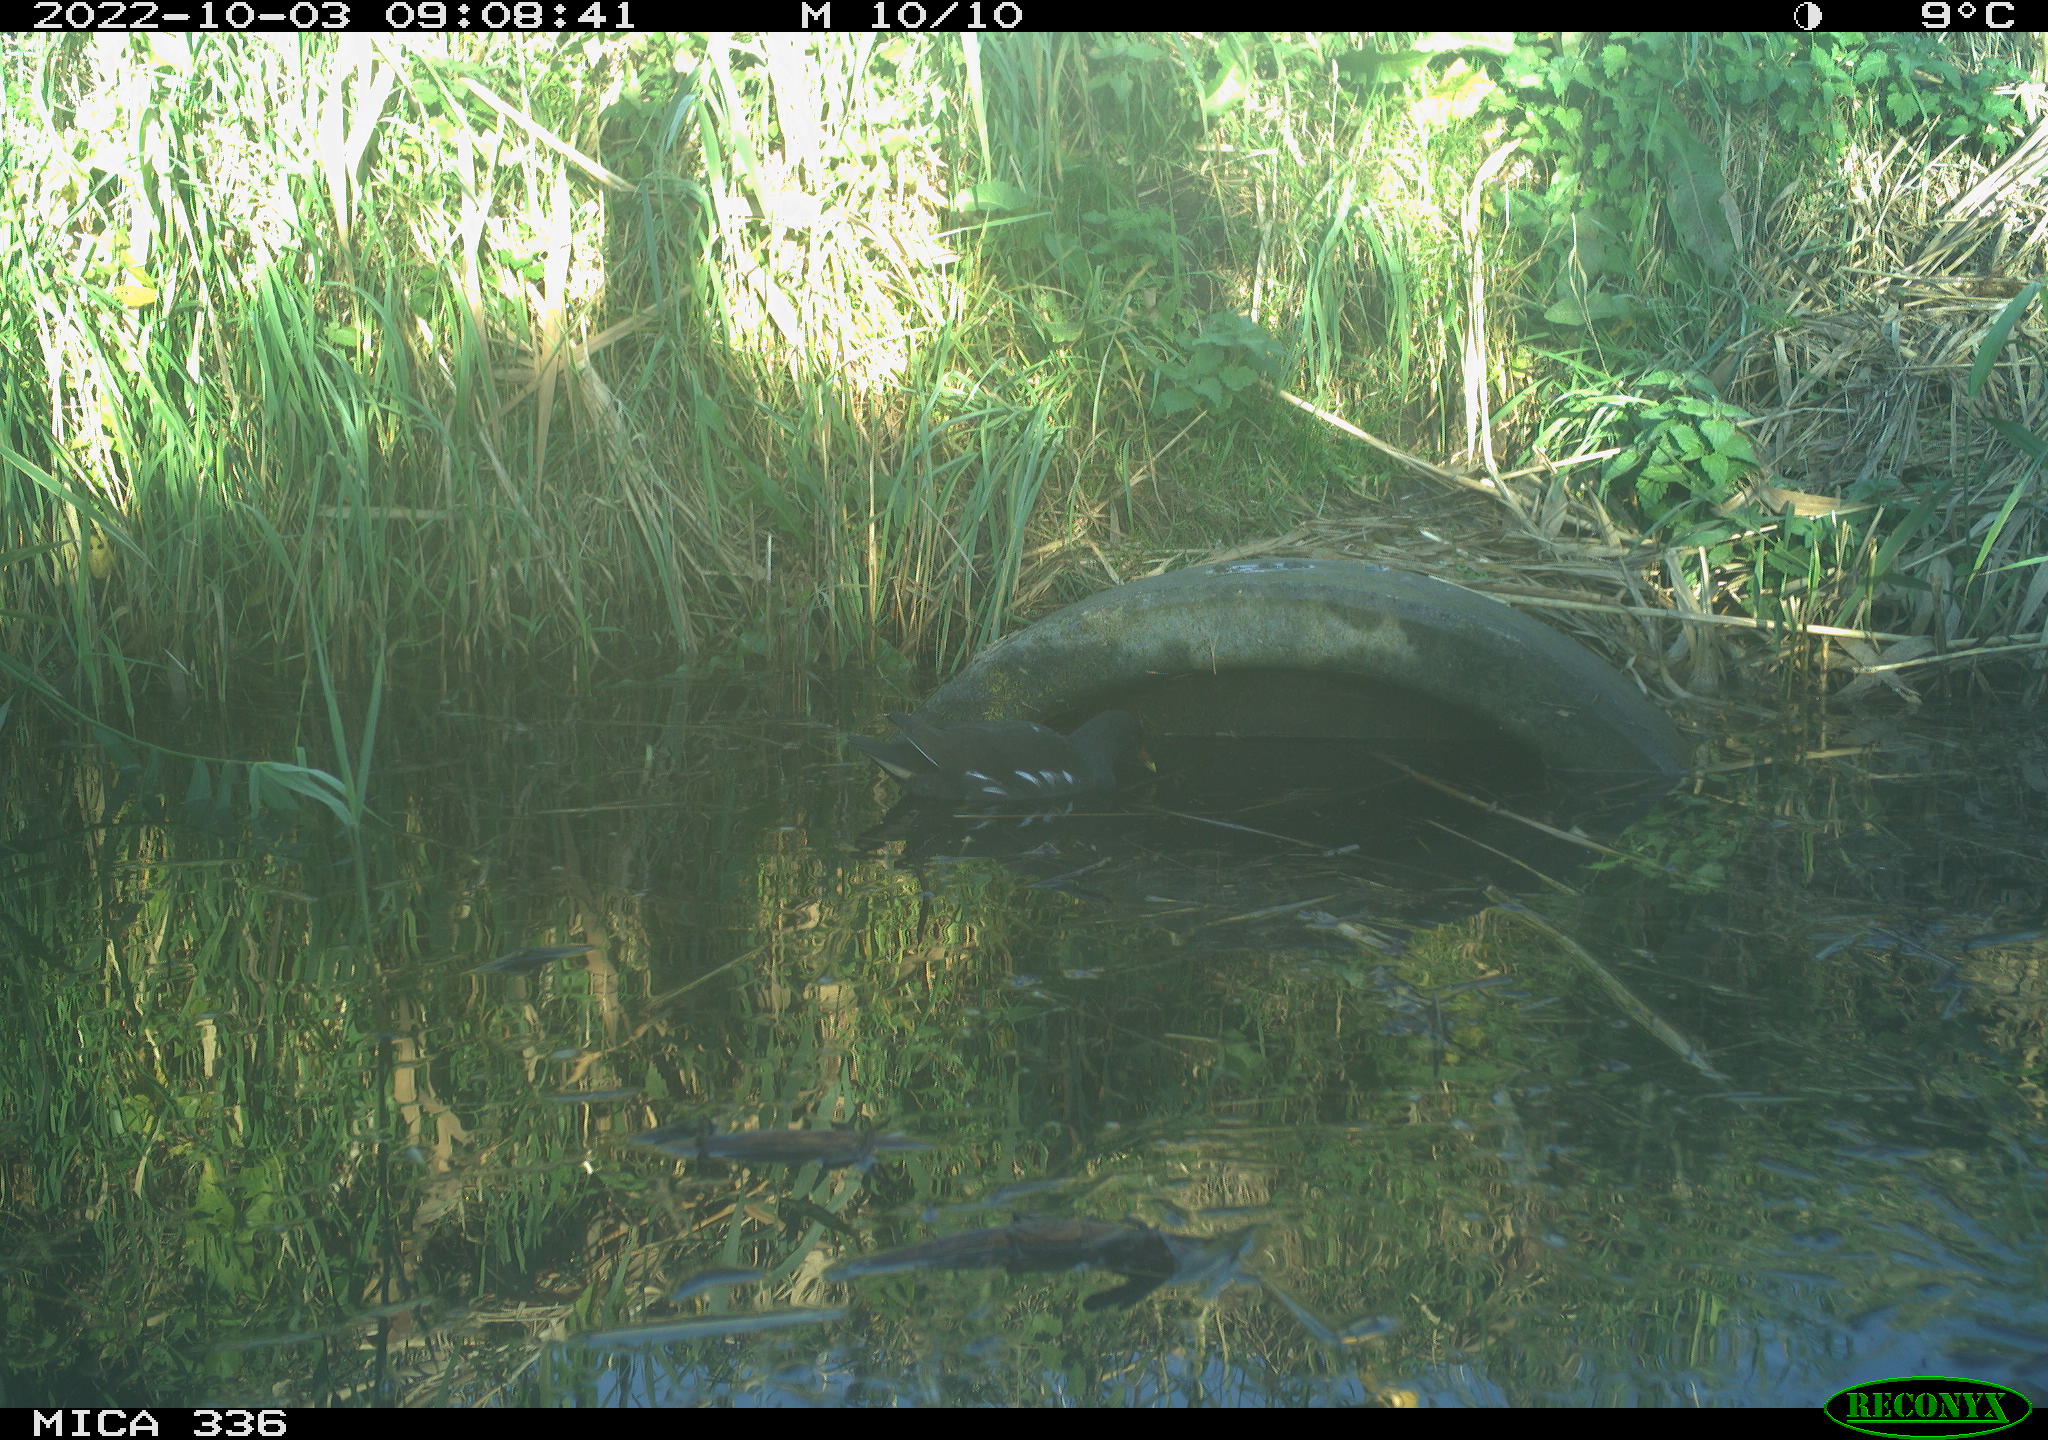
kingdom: Animalia
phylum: Chordata
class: Aves
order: Gruiformes
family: Rallidae
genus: Gallinula
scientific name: Gallinula chloropus
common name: Common moorhen
